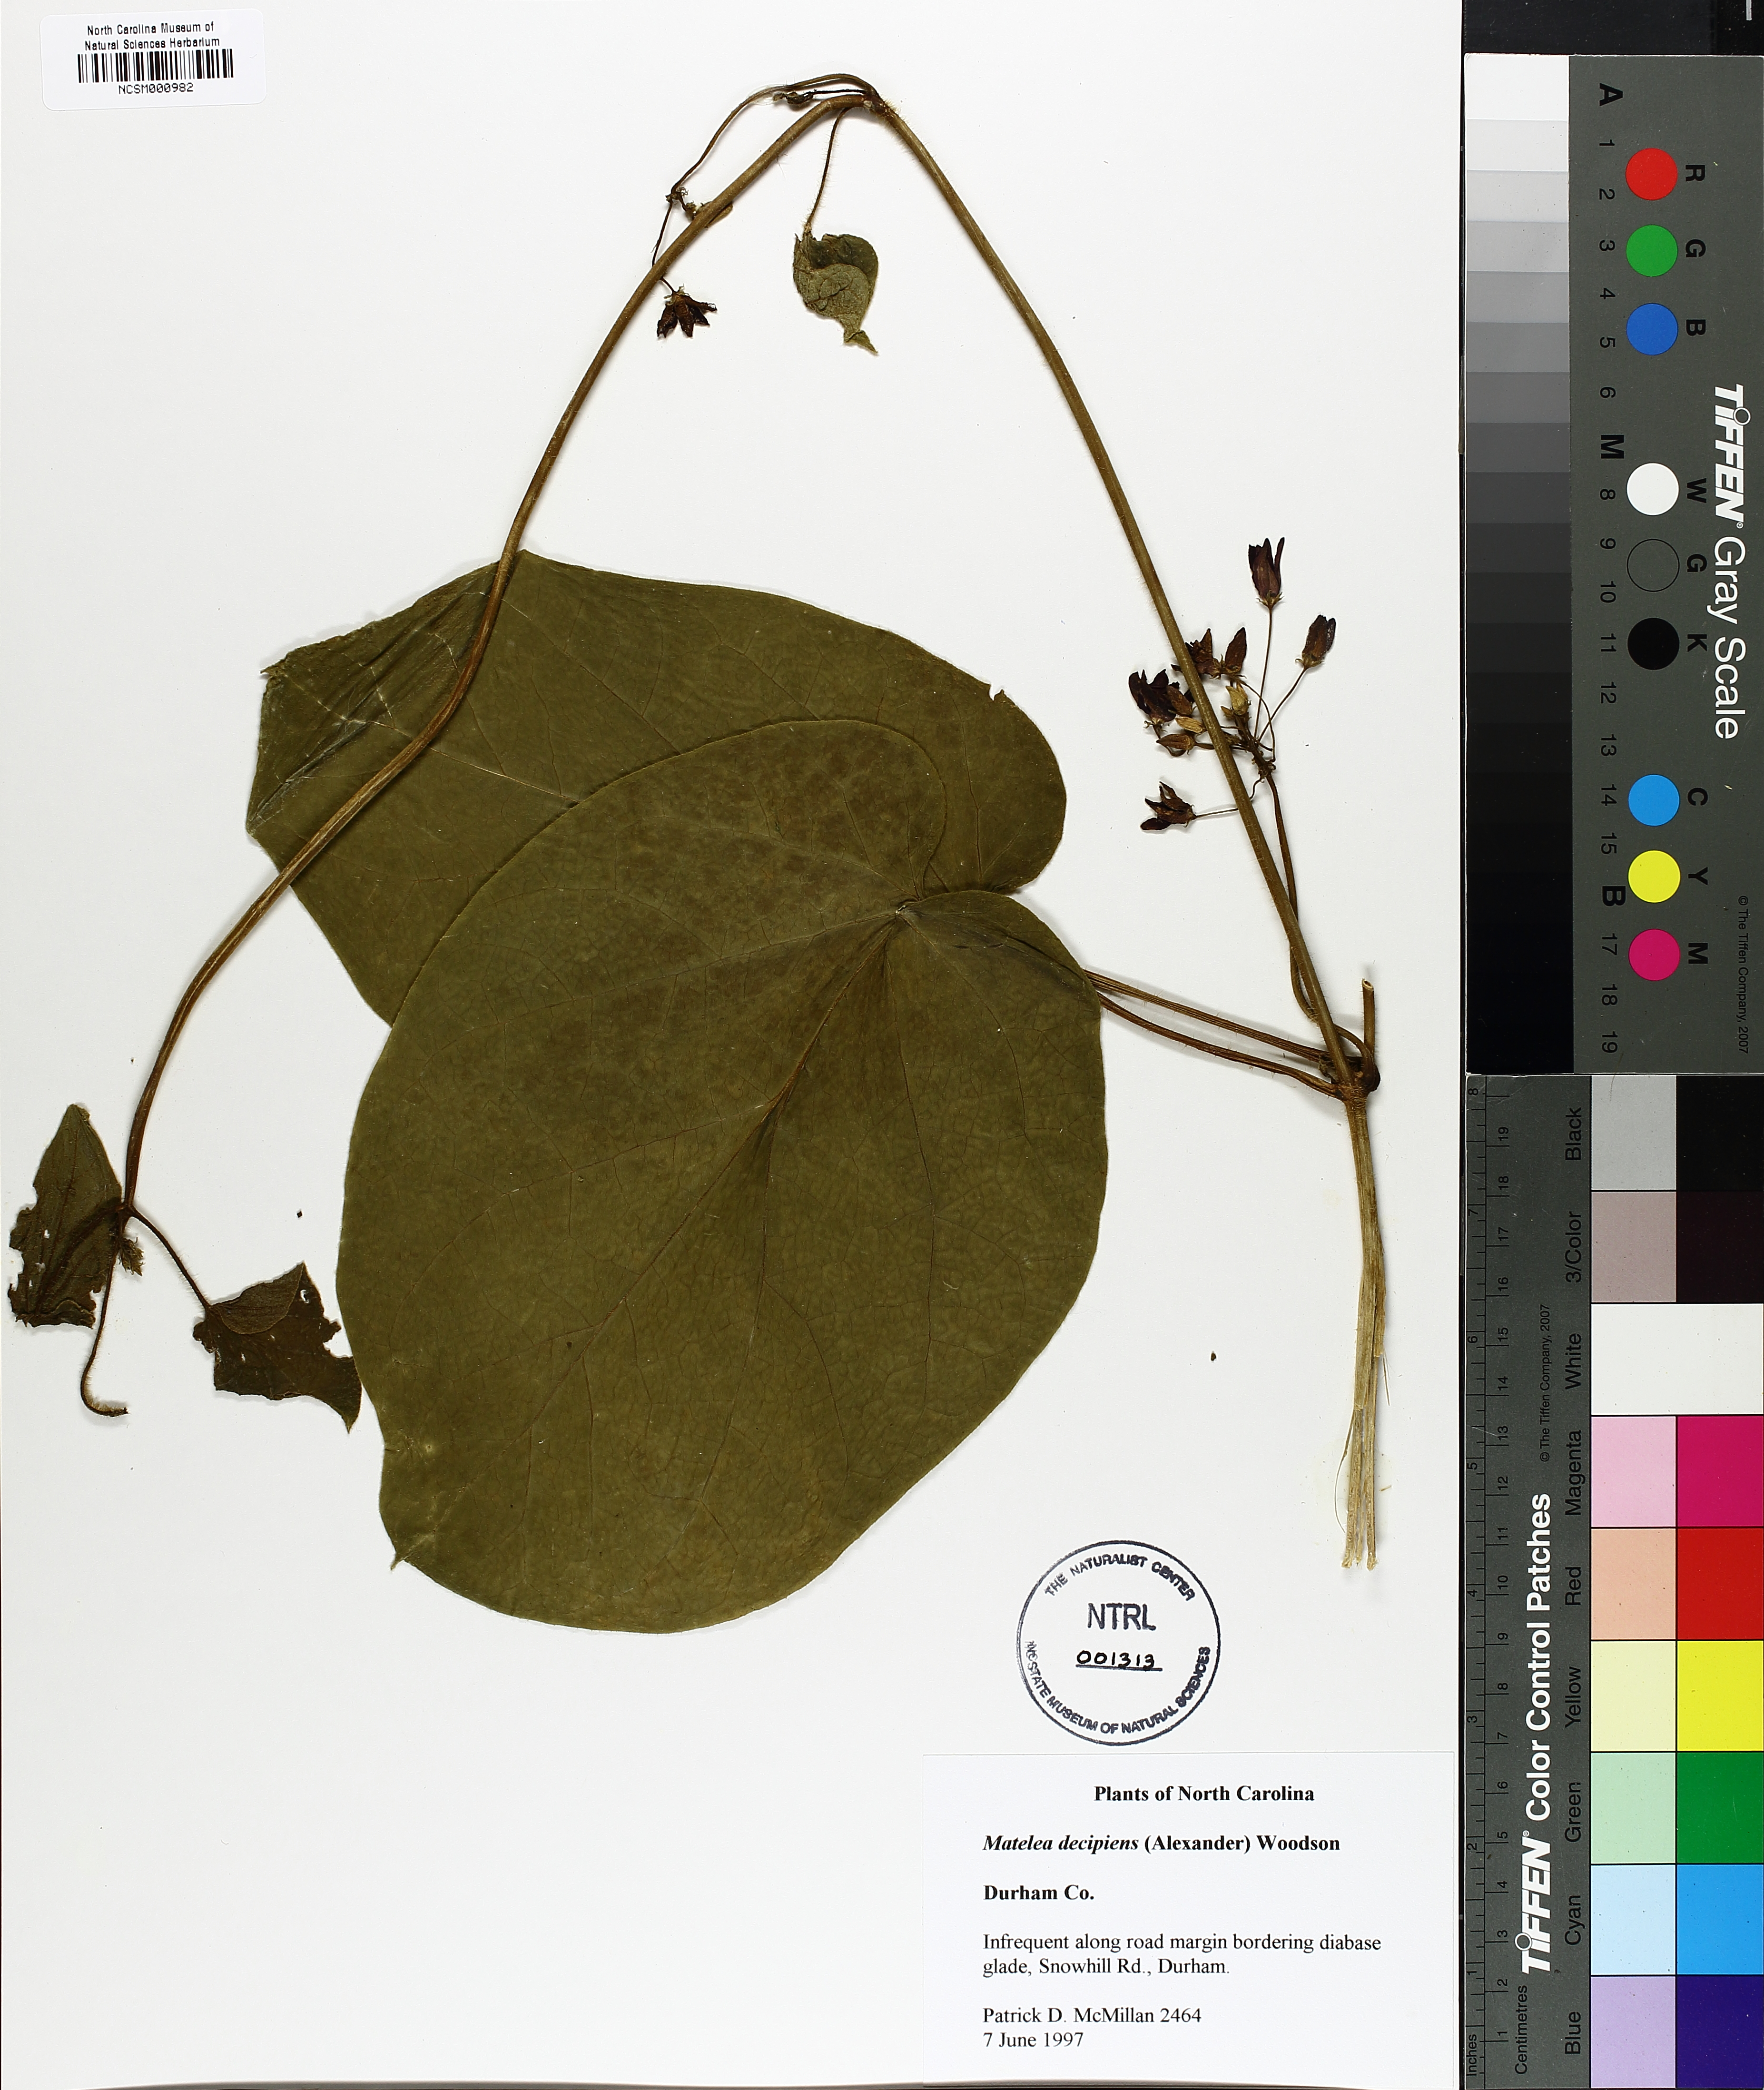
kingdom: Plantae
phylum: Tracheophyta
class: Magnoliopsida
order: Gentianales
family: Apocynaceae
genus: Matelea
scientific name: Matelea decipiens
